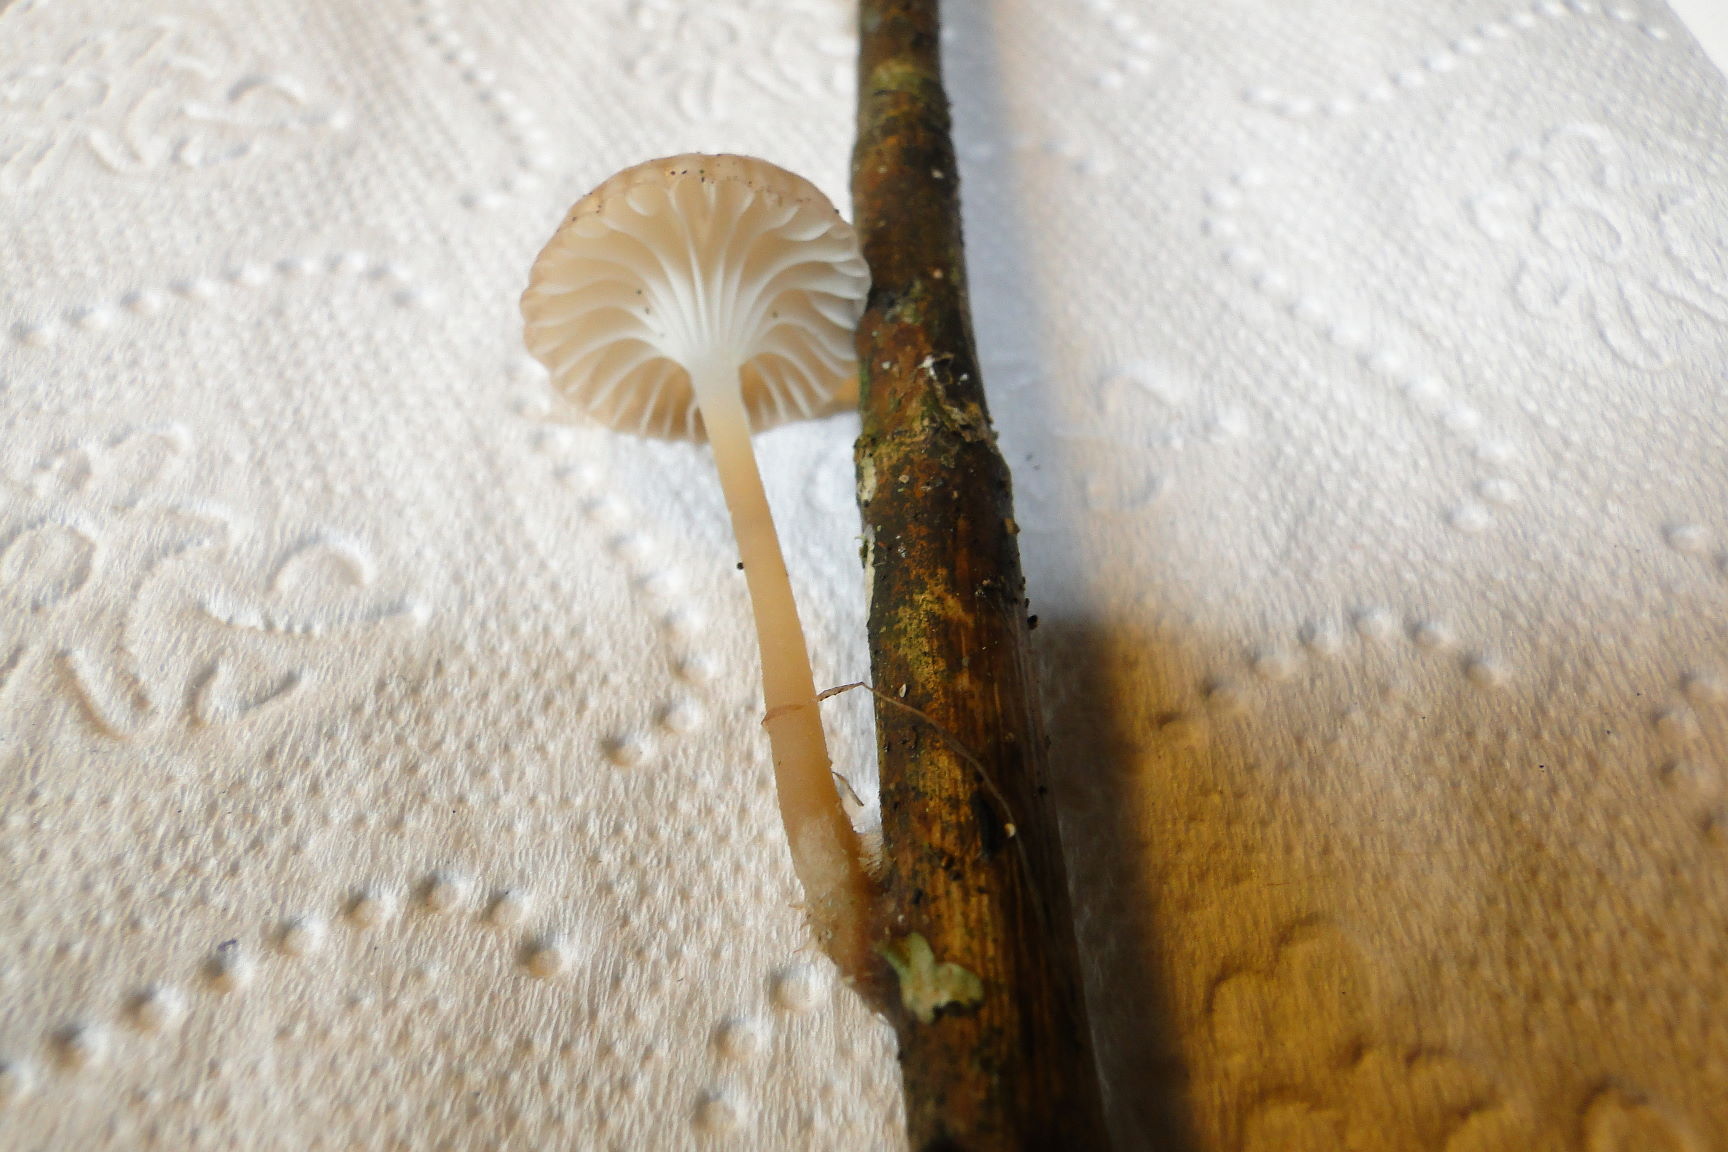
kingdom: Fungi
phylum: Basidiomycota
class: Agaricomycetes
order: Agaricales
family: Mycenaceae
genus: Mycena
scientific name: Mycena belliae
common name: tagrørs-huesvamp
